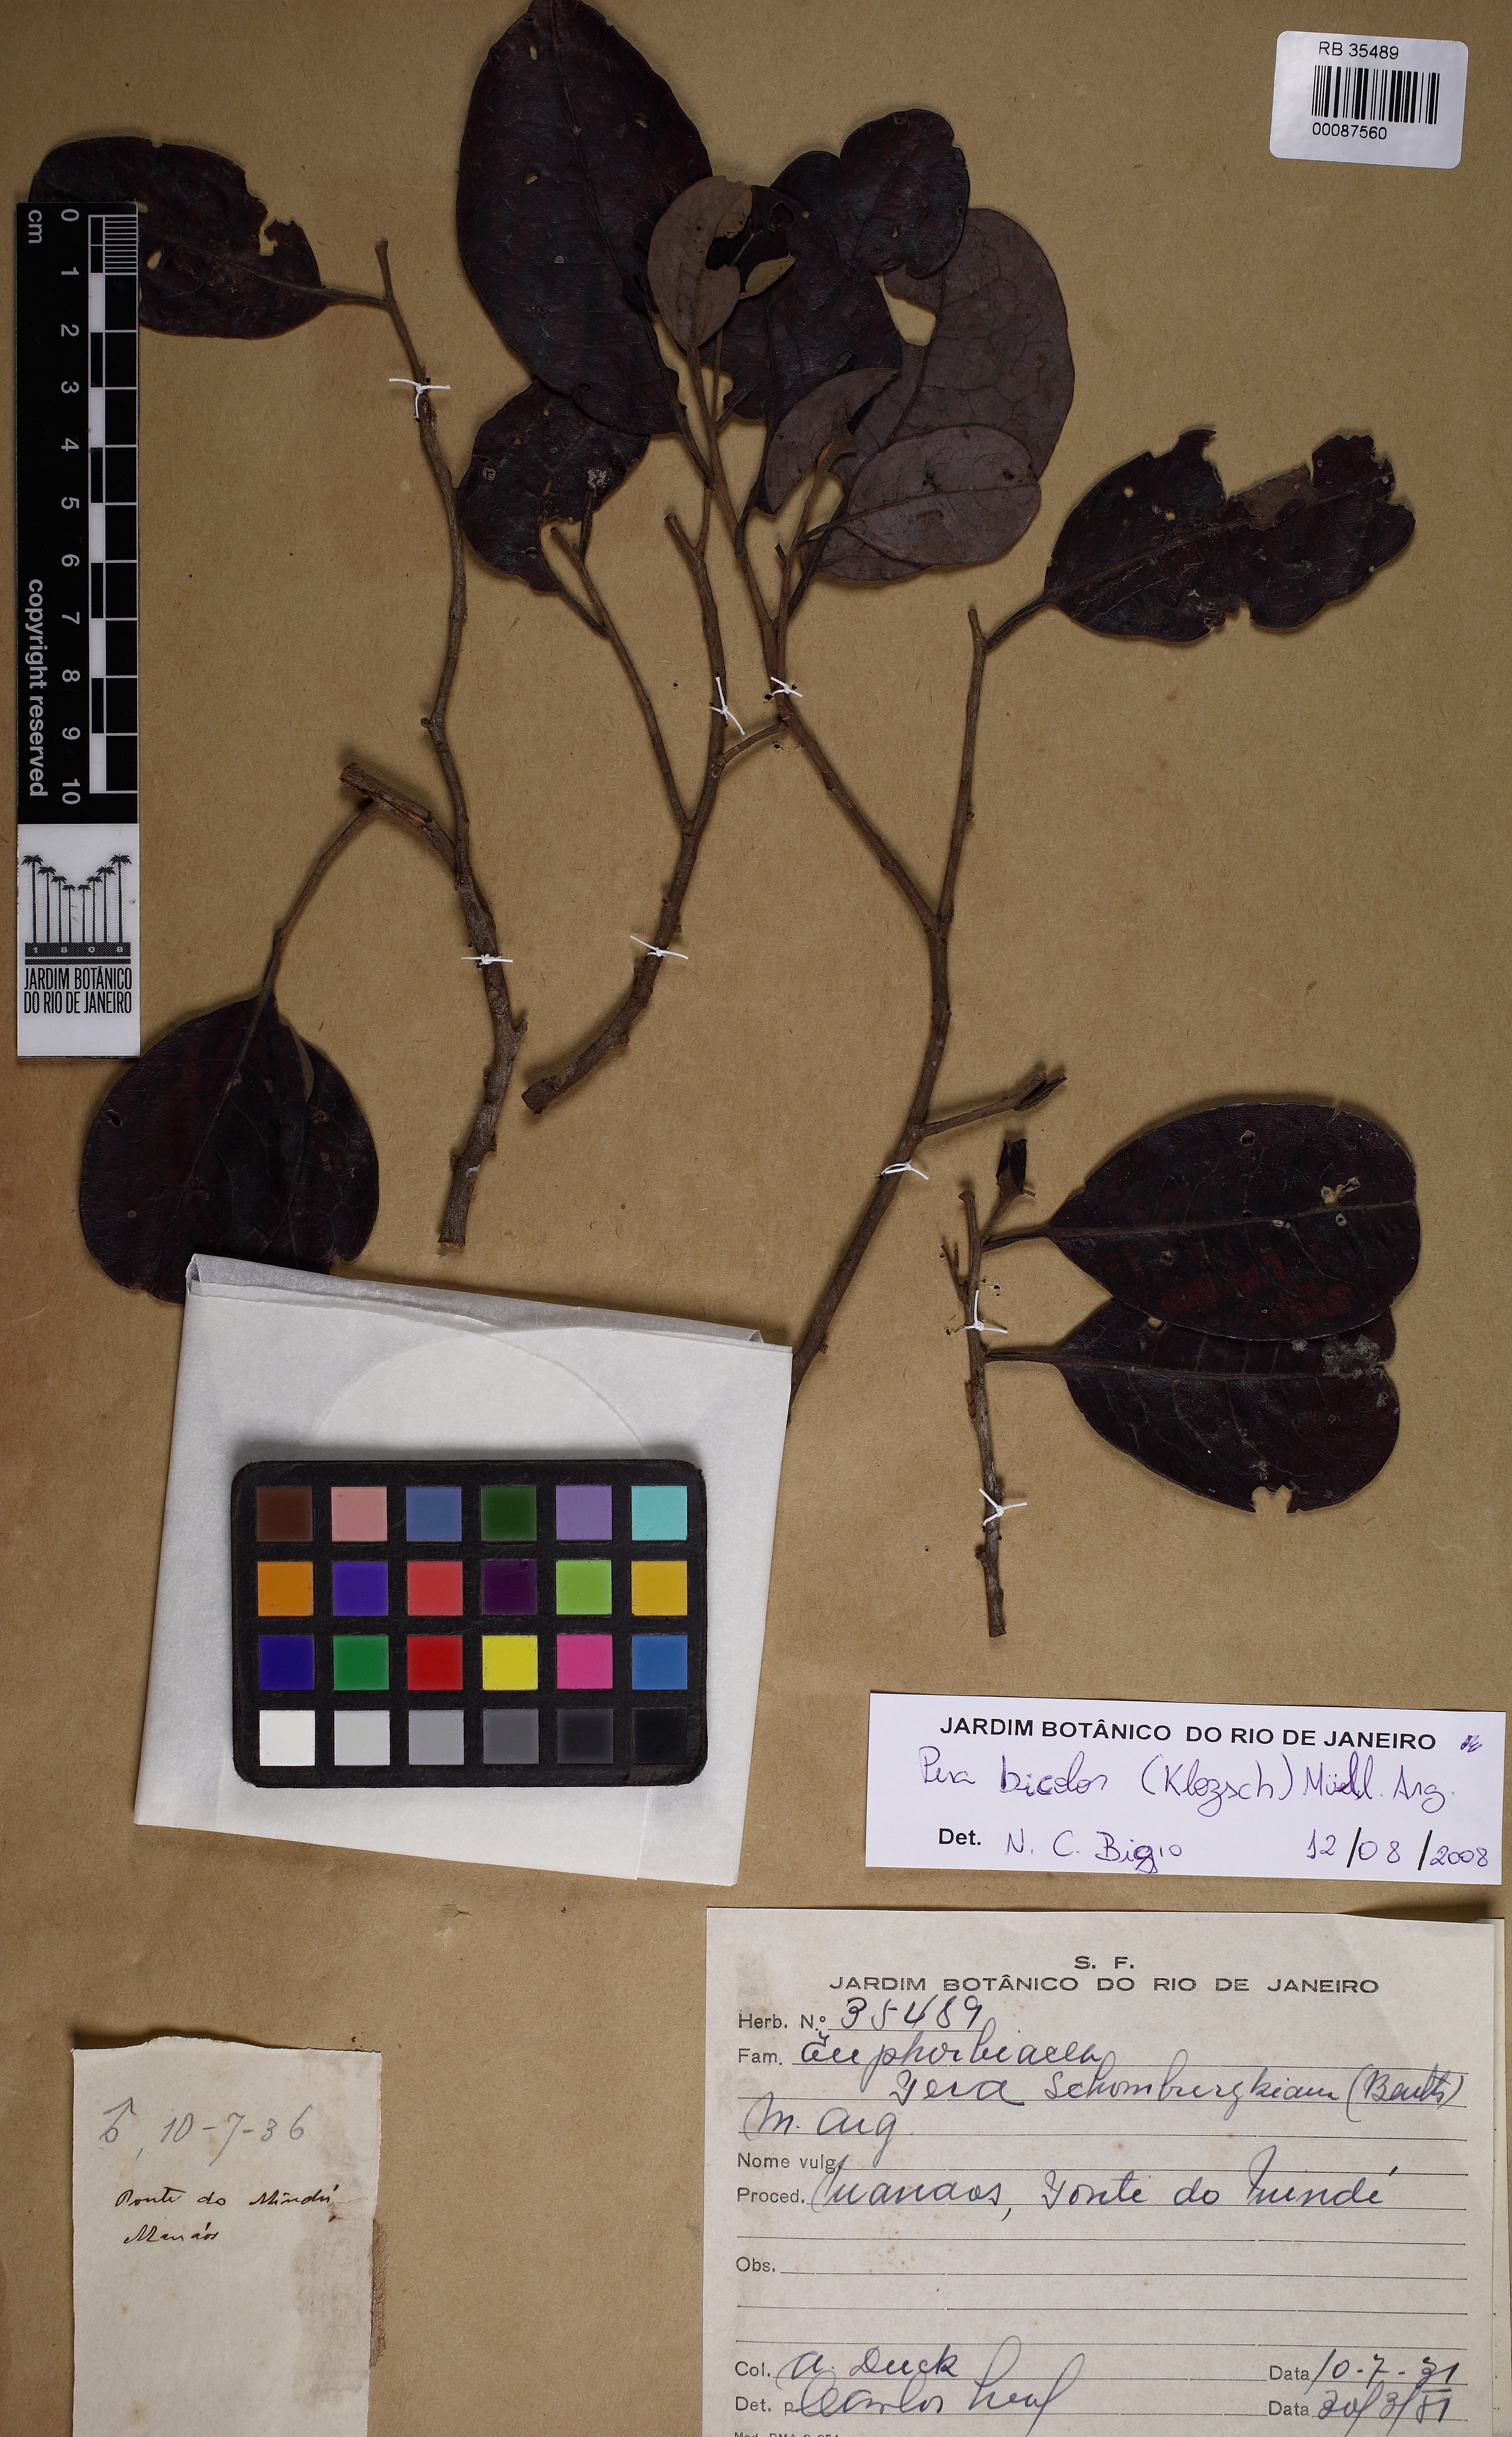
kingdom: Plantae
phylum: Tracheophyta
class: Magnoliopsida
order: Malpighiales
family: Peraceae
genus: Pera
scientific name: Pera bicolor
